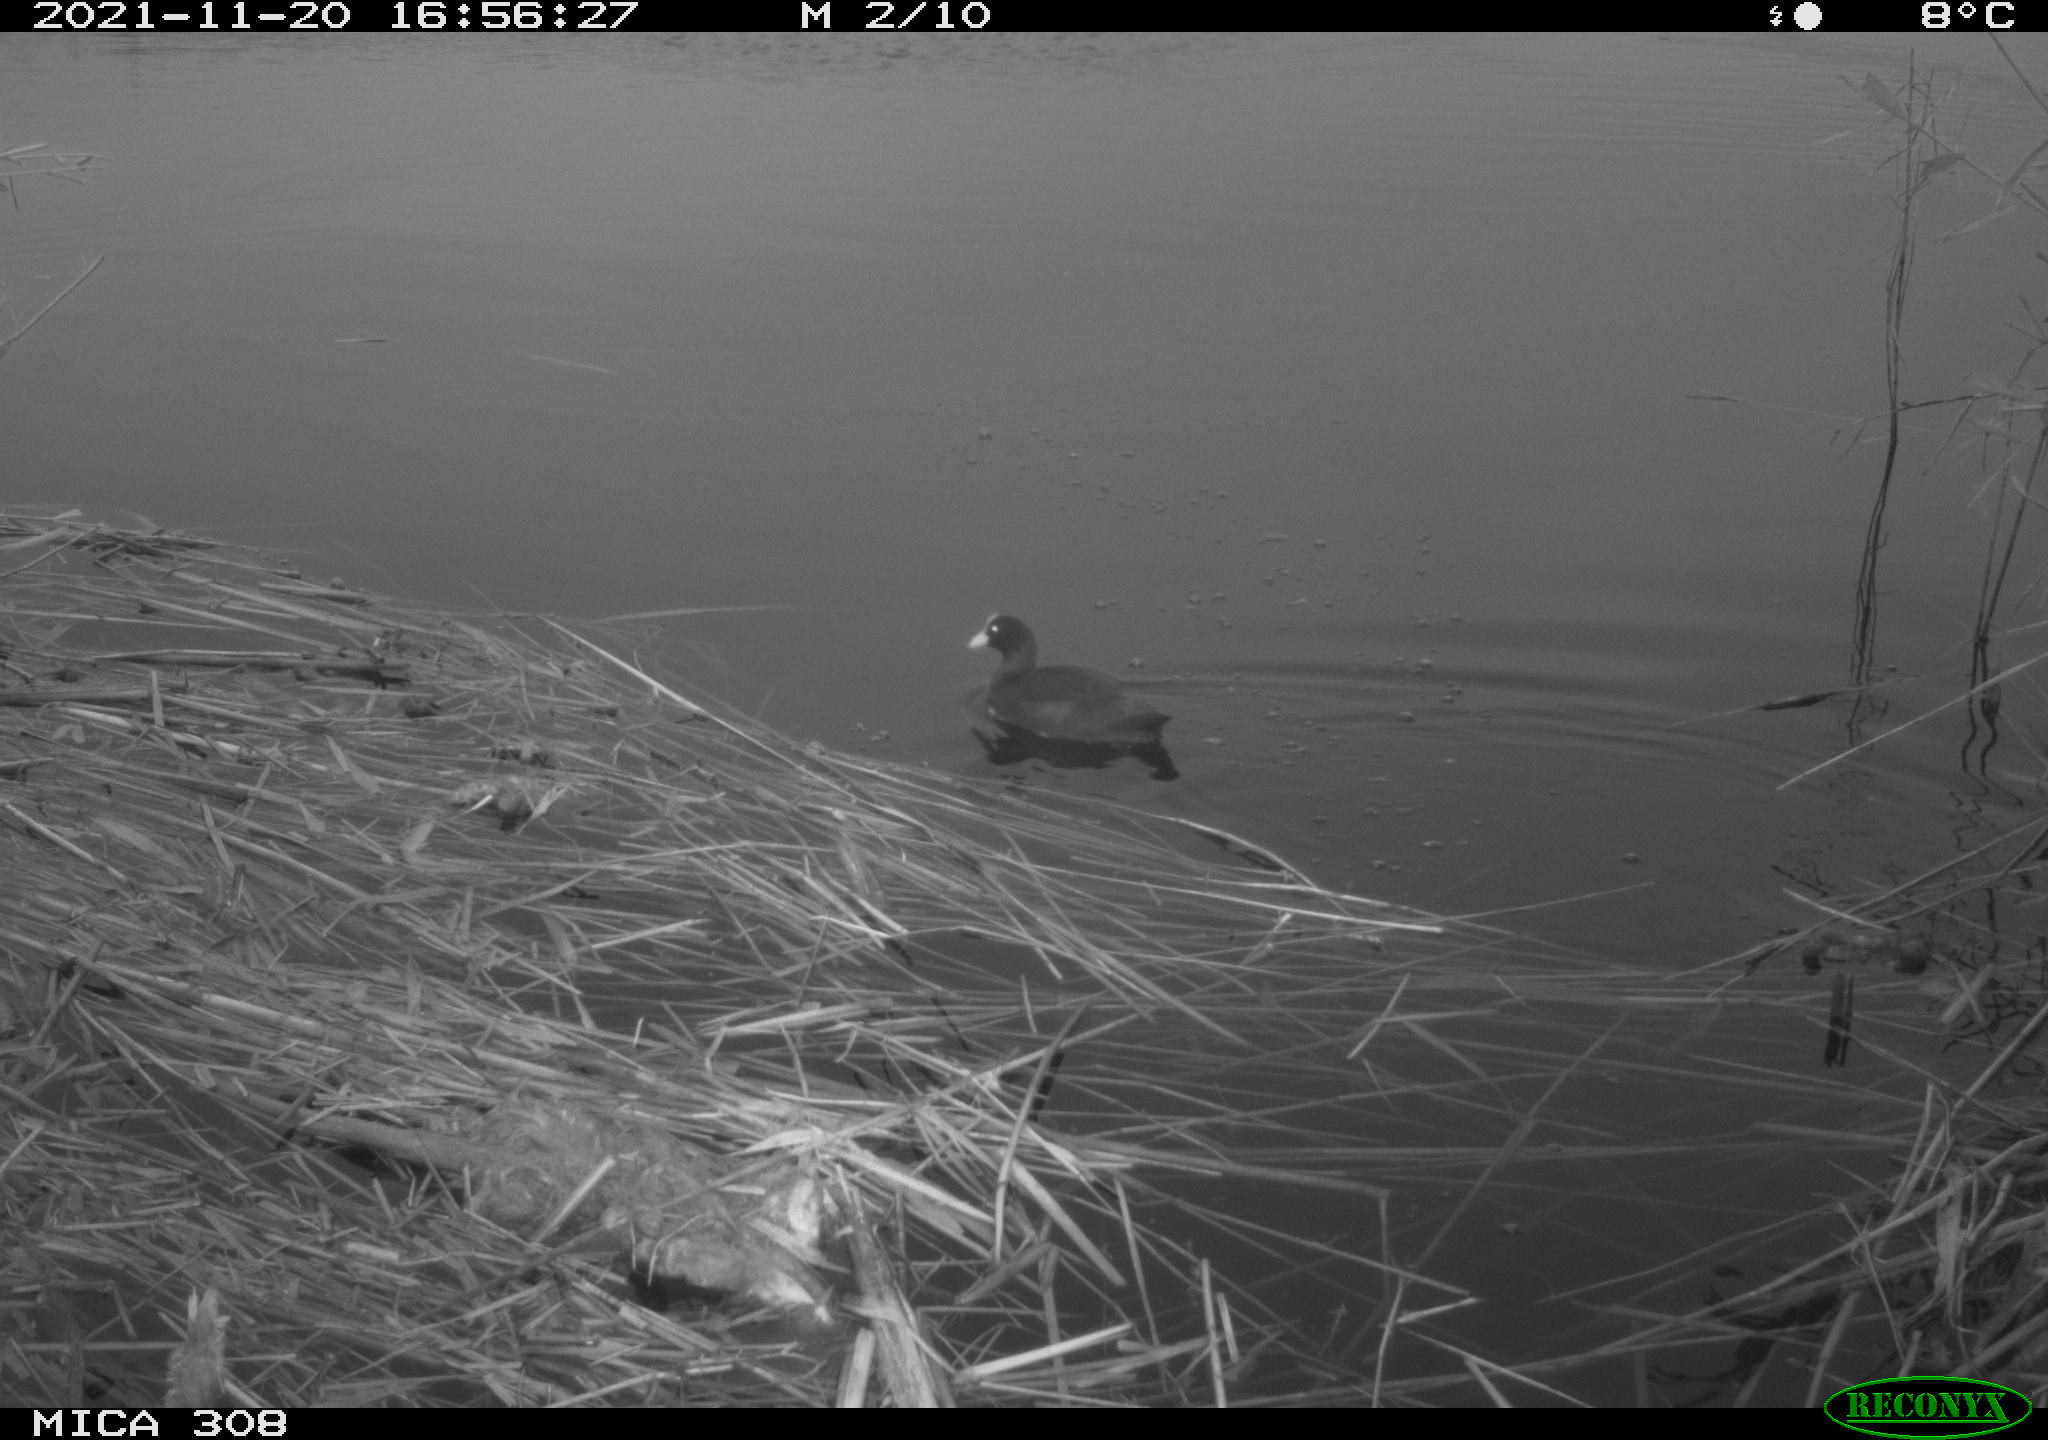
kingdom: Animalia
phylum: Chordata
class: Aves
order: Gruiformes
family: Rallidae
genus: Gallinula
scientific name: Gallinula chloropus
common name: Common moorhen
